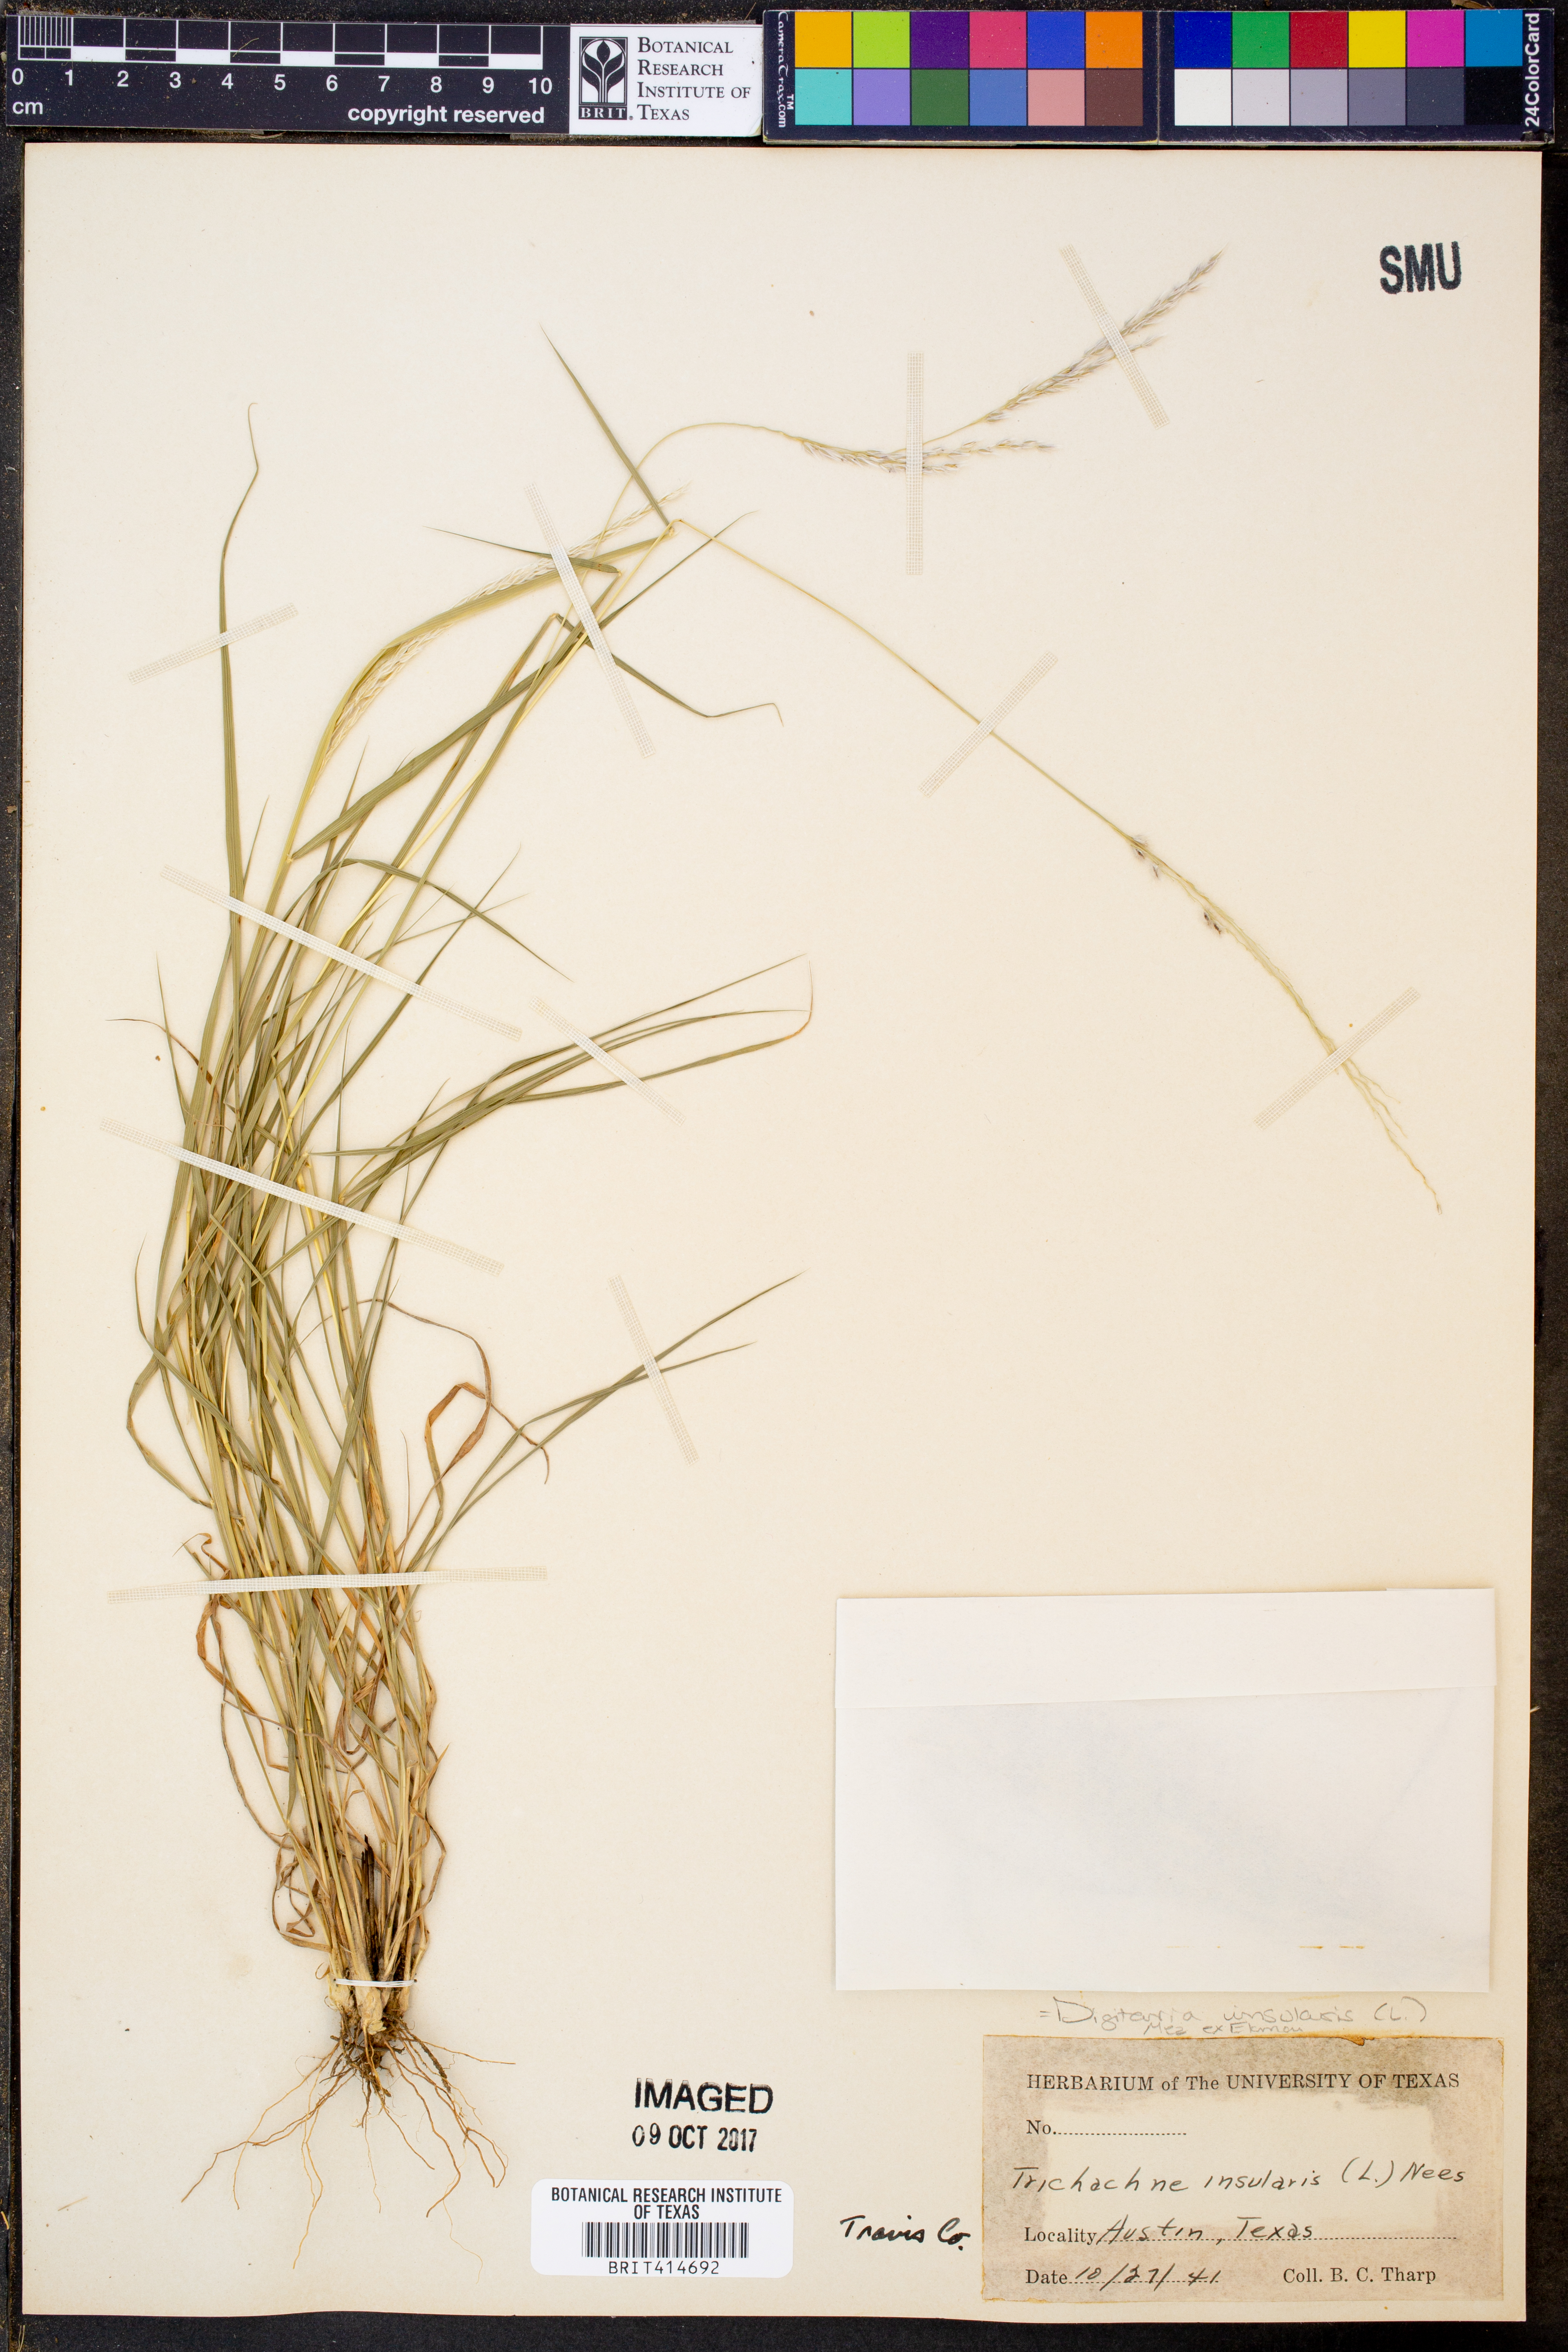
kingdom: Plantae
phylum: Tracheophyta
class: Liliopsida
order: Poales
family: Poaceae
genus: Digitaria
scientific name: Digitaria insularis
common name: Sourgrass
